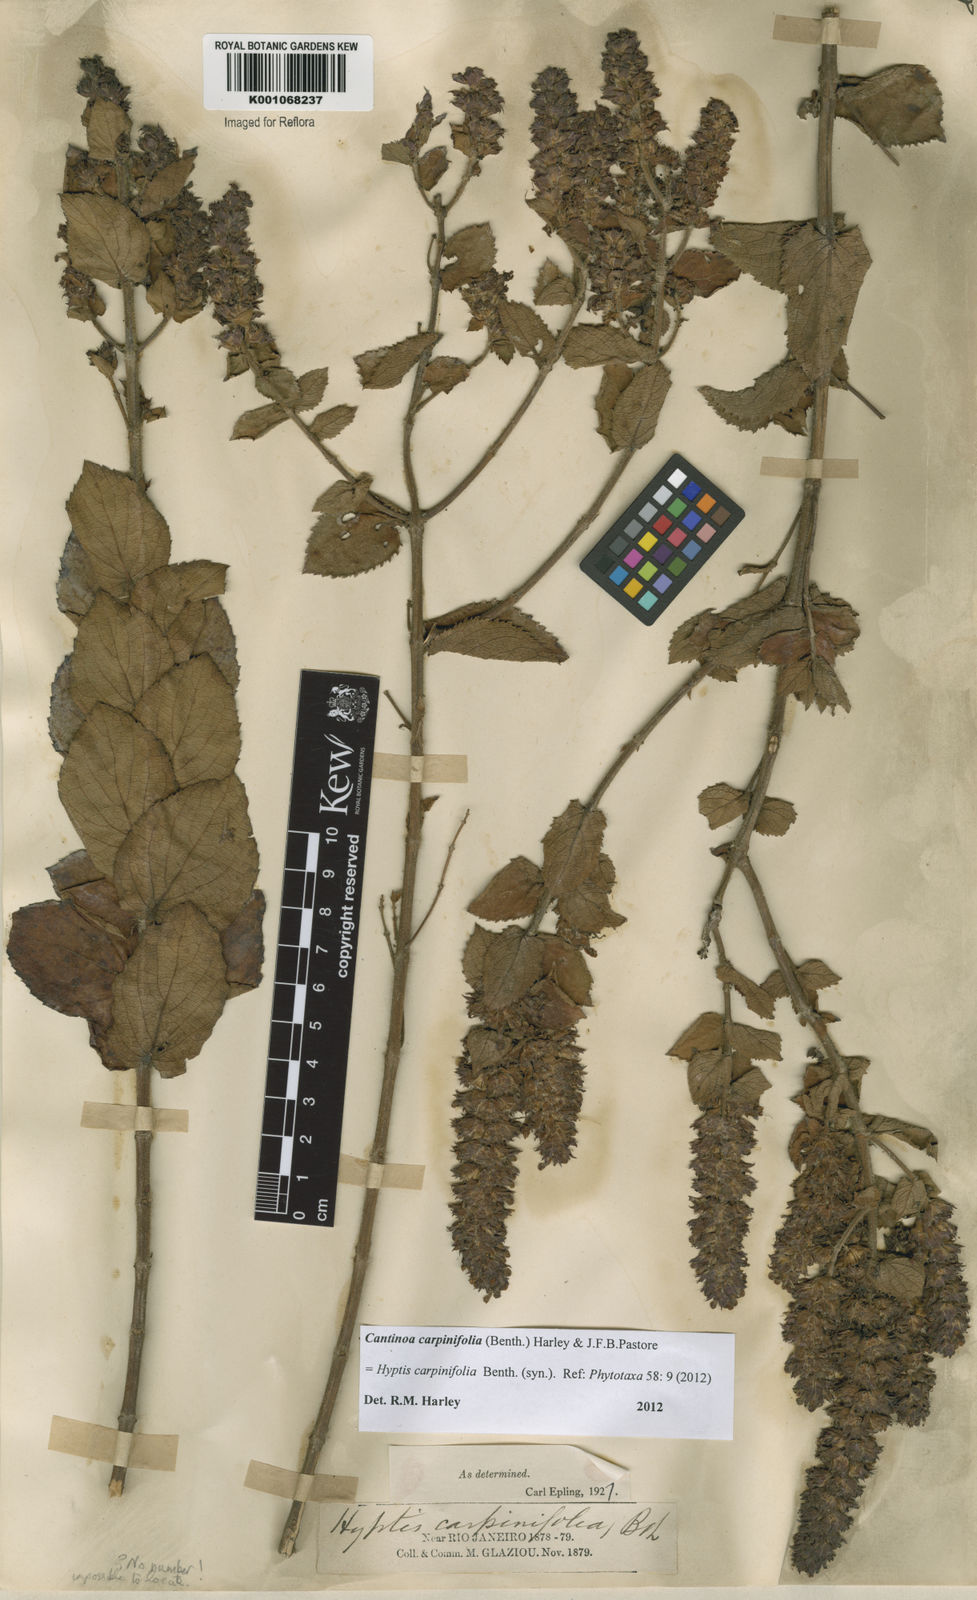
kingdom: Plantae
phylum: Tracheophyta
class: Magnoliopsida
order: Lamiales
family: Lamiaceae
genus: Cantinoa
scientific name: Cantinoa carpinifolia
